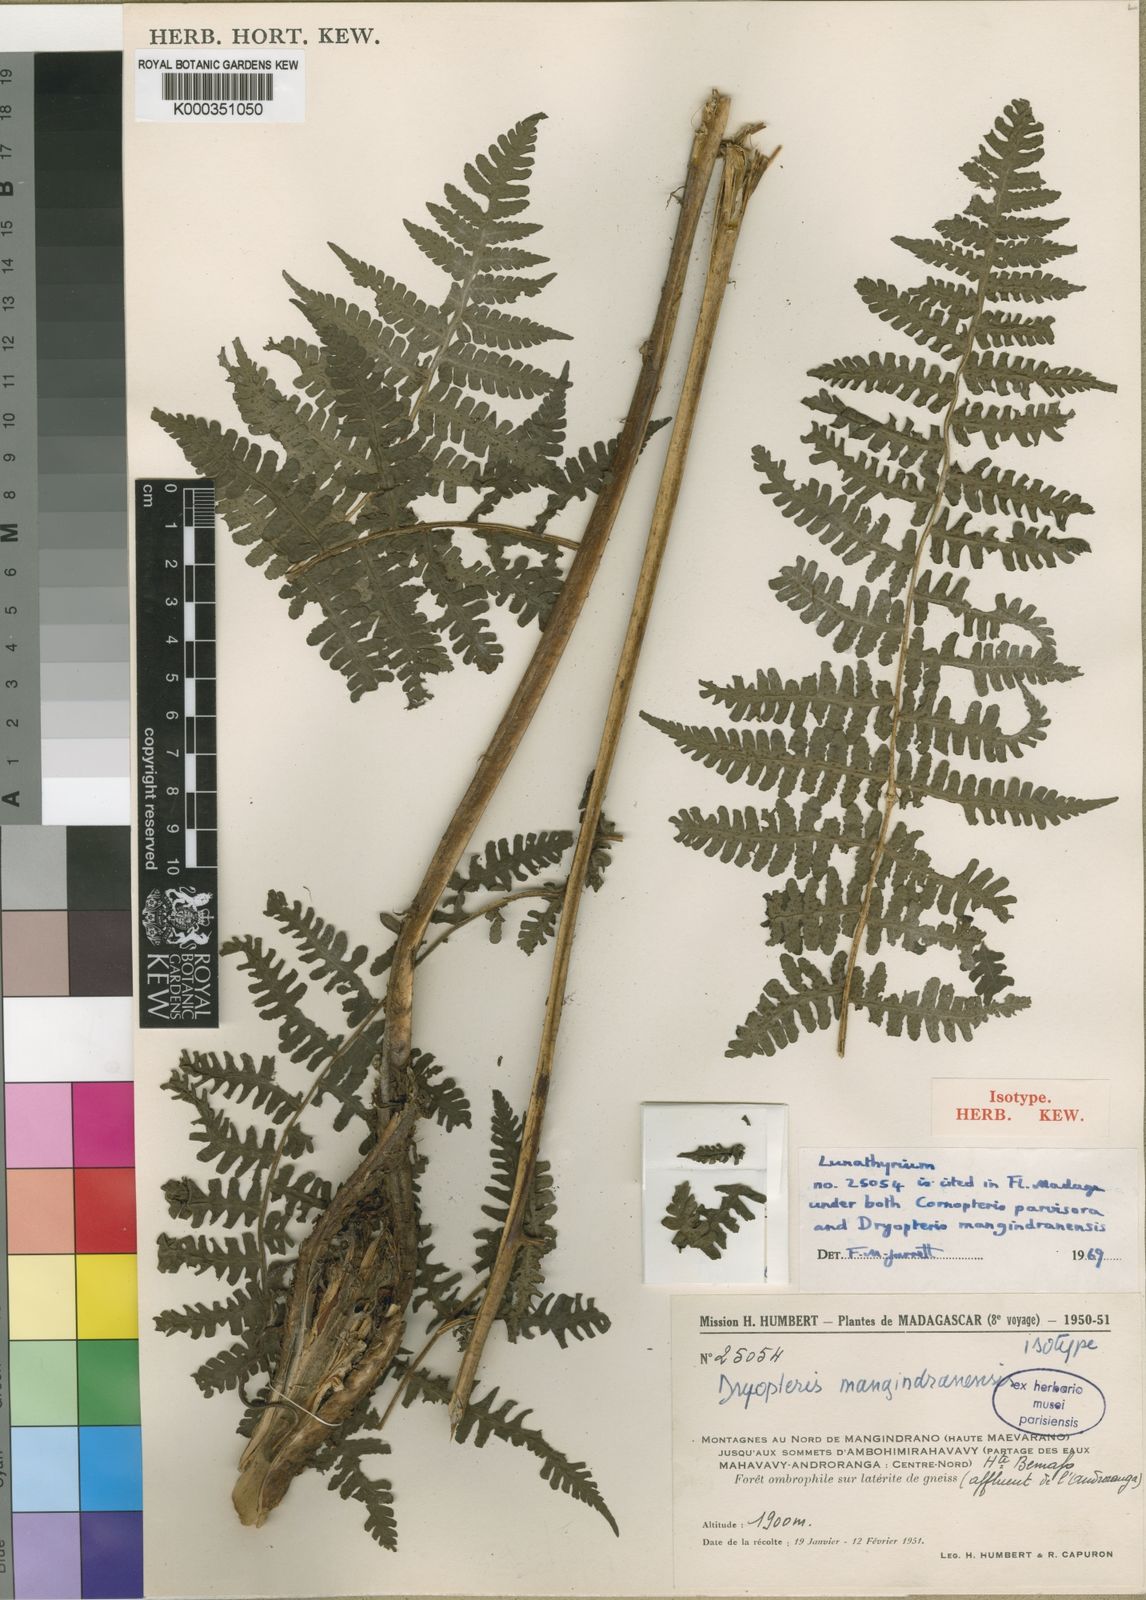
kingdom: Plantae
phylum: Tracheophyta
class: Polypodiopsida
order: Polypodiales
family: Athyriaceae
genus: Deparia
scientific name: Deparia
